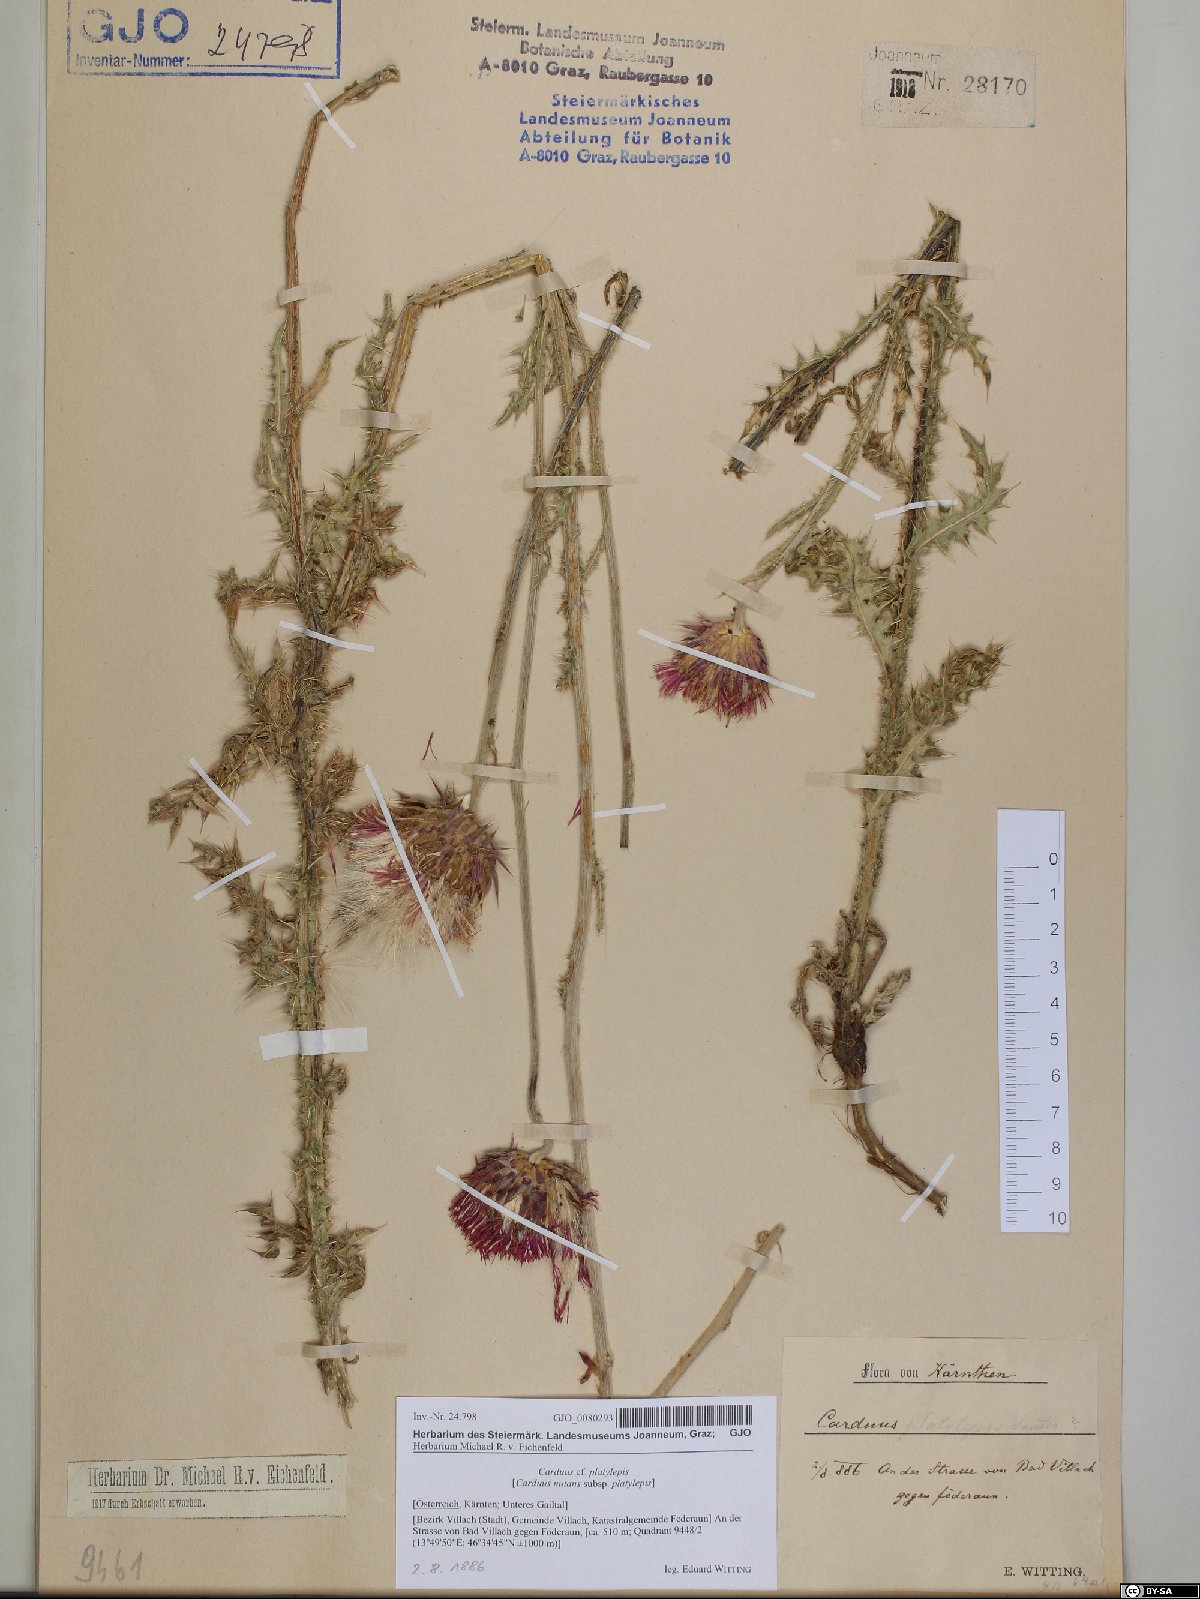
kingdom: Plantae
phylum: Tracheophyta
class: Magnoliopsida
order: Asterales
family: Asteraceae
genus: Carduus
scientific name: Carduus nutans
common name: Musk thistle
